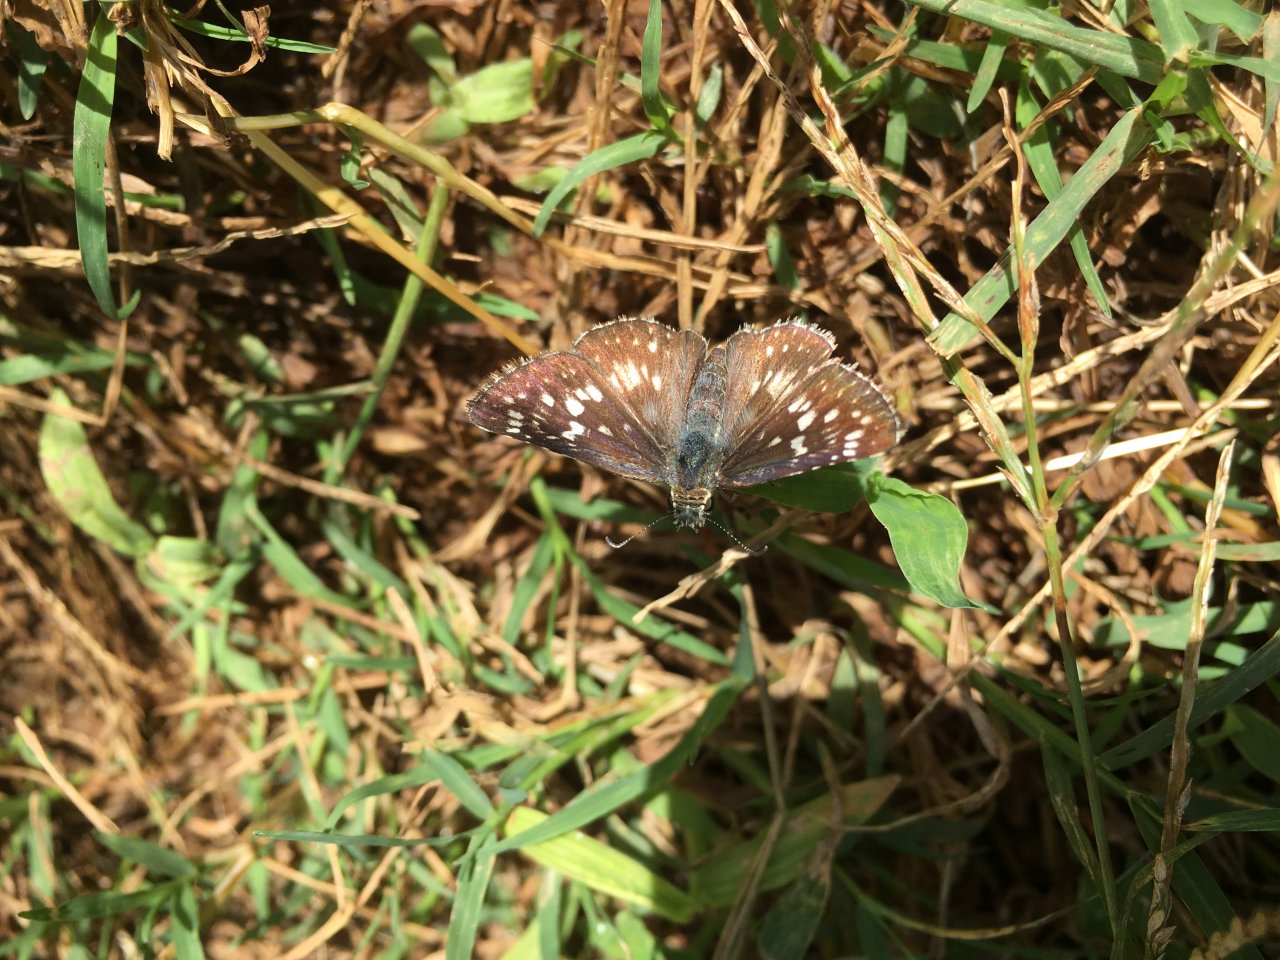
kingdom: Animalia
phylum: Arthropoda
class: Insecta
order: Lepidoptera
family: Hesperiidae
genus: Pyrgus
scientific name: Pyrgus communis
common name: Common Checkered-Skipper
